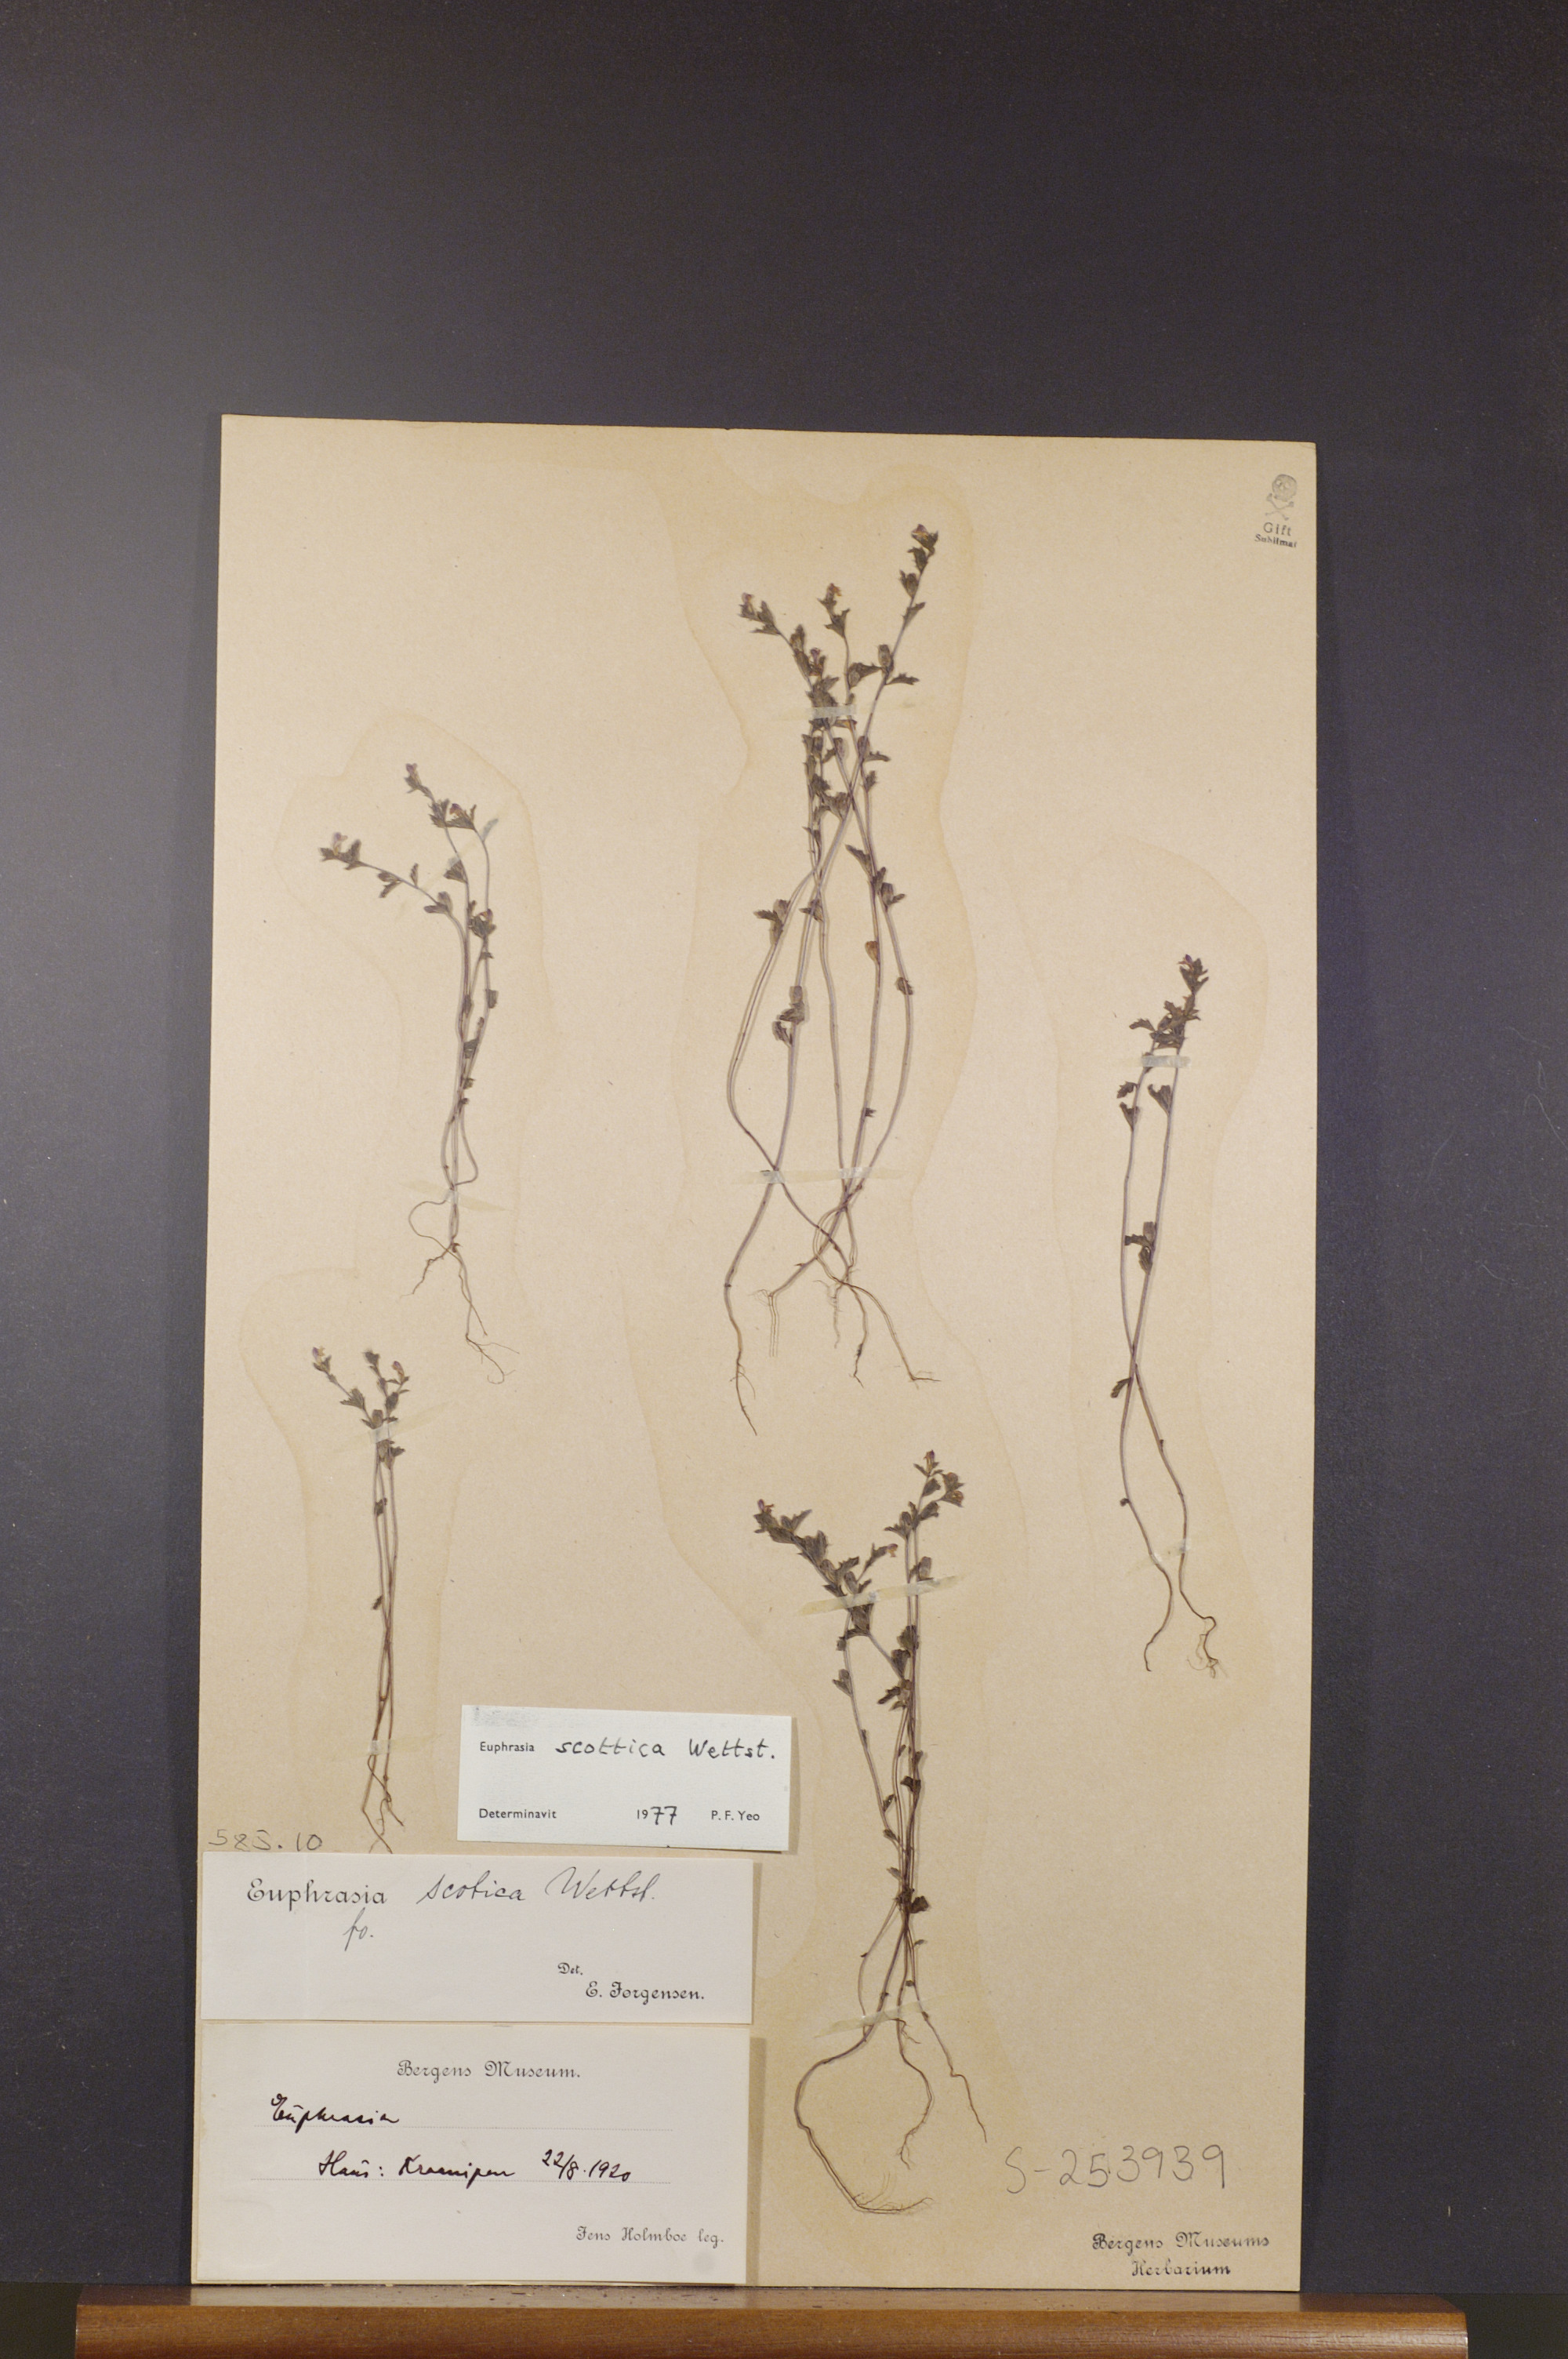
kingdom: Plantae
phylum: Tracheophyta
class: Magnoliopsida
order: Lamiales
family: Orobanchaceae
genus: Euphrasia
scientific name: Euphrasia scottica
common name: Slender scottish eyebright
